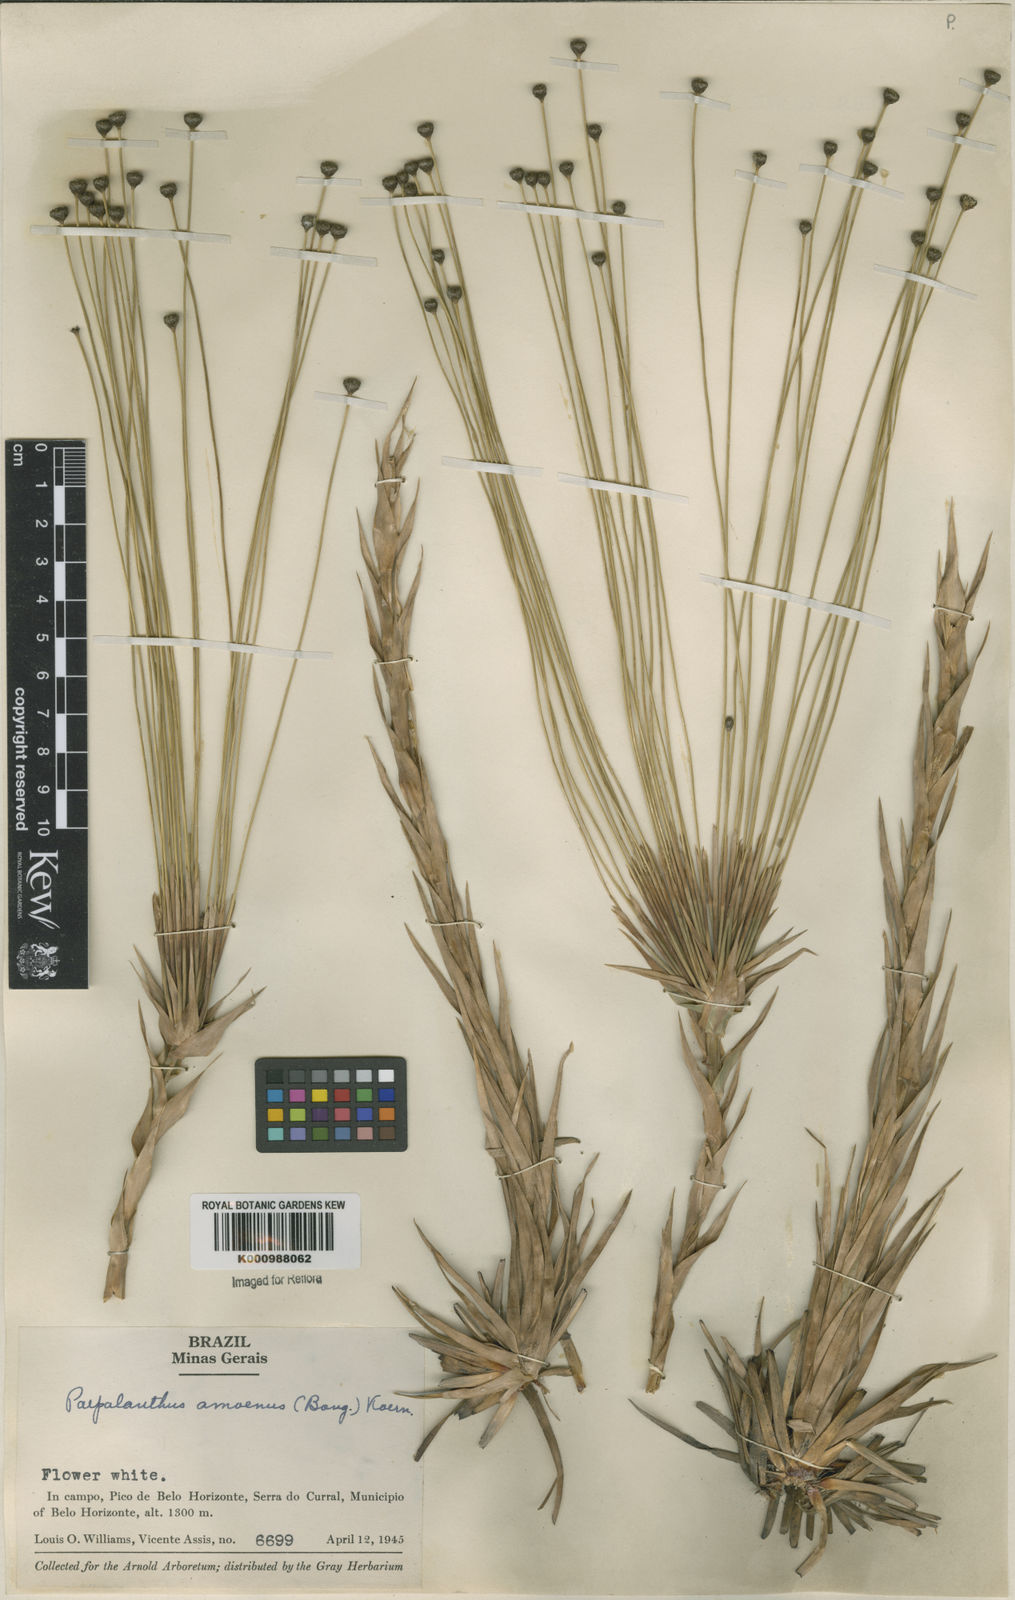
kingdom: Plantae
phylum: Tracheophyta
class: Liliopsida
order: Poales
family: Eriocaulaceae
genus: Paepalanthus
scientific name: Paepalanthus
